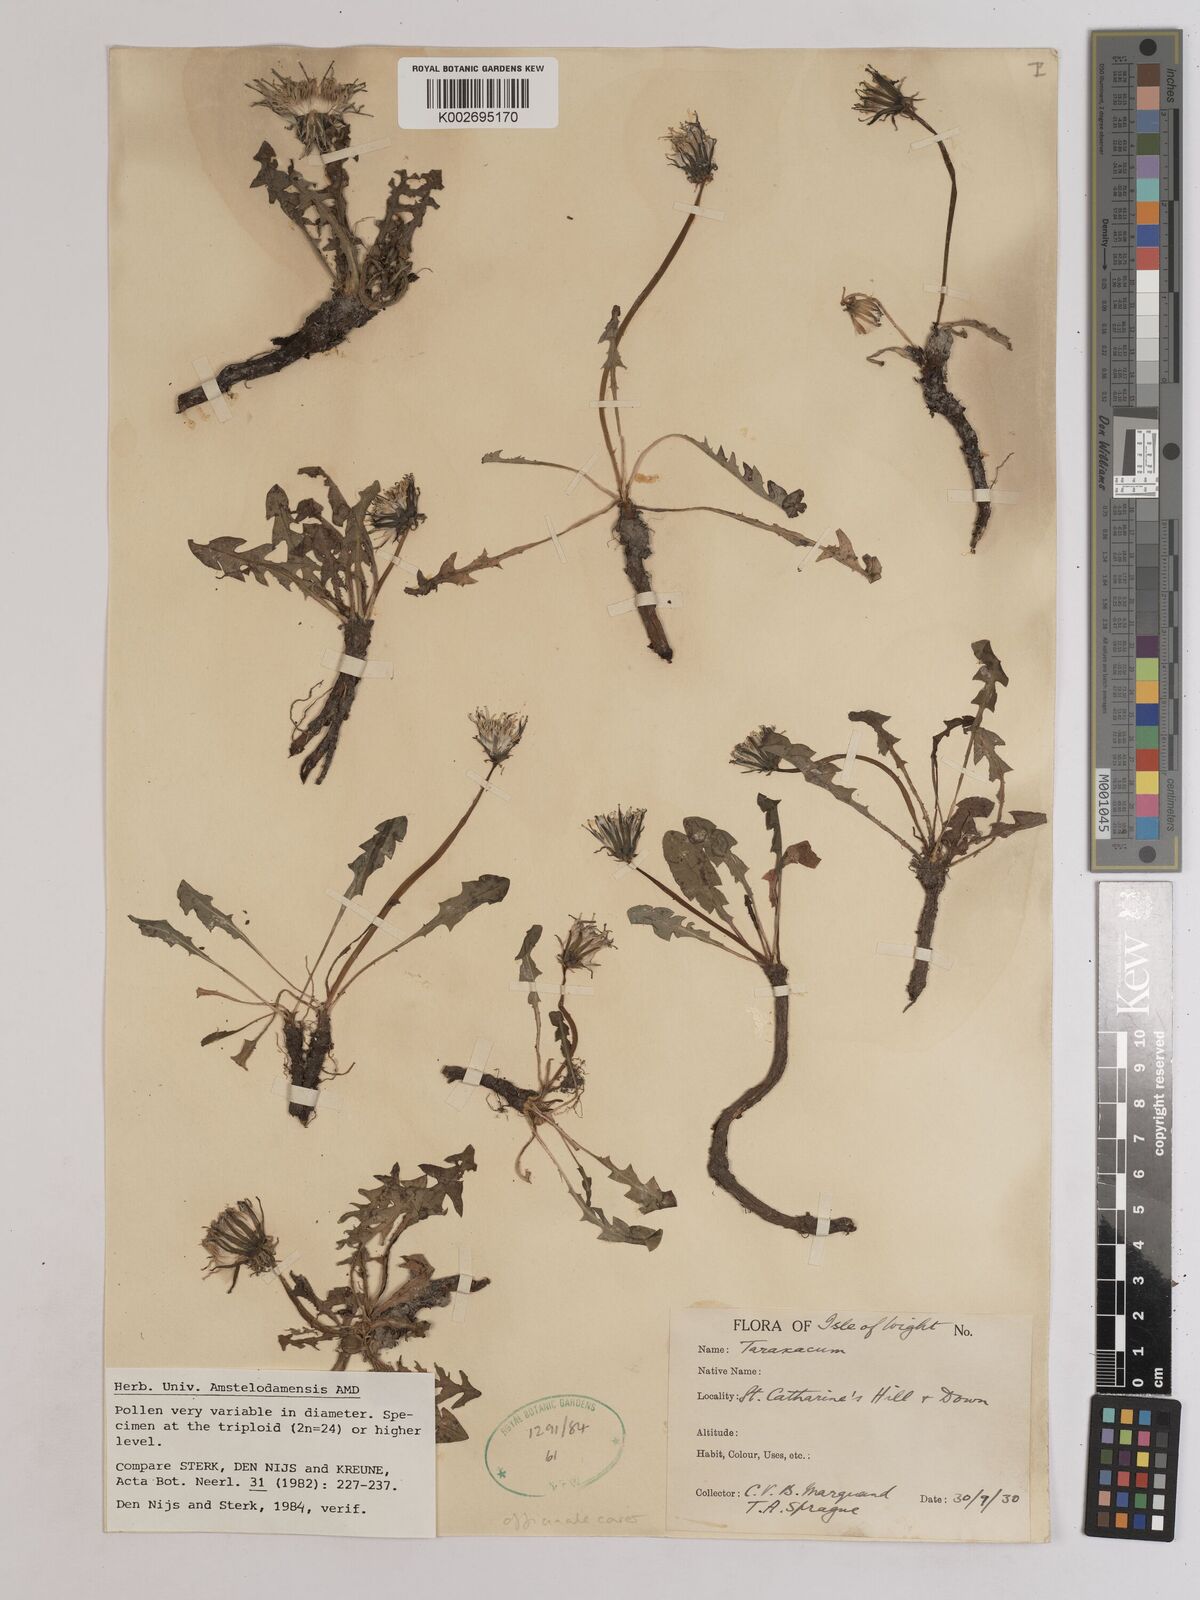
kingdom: Plantae
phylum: Tracheophyta
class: Magnoliopsida
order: Asterales
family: Asteraceae
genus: Taraxacum
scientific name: Taraxacum officinale
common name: Common dandelion
